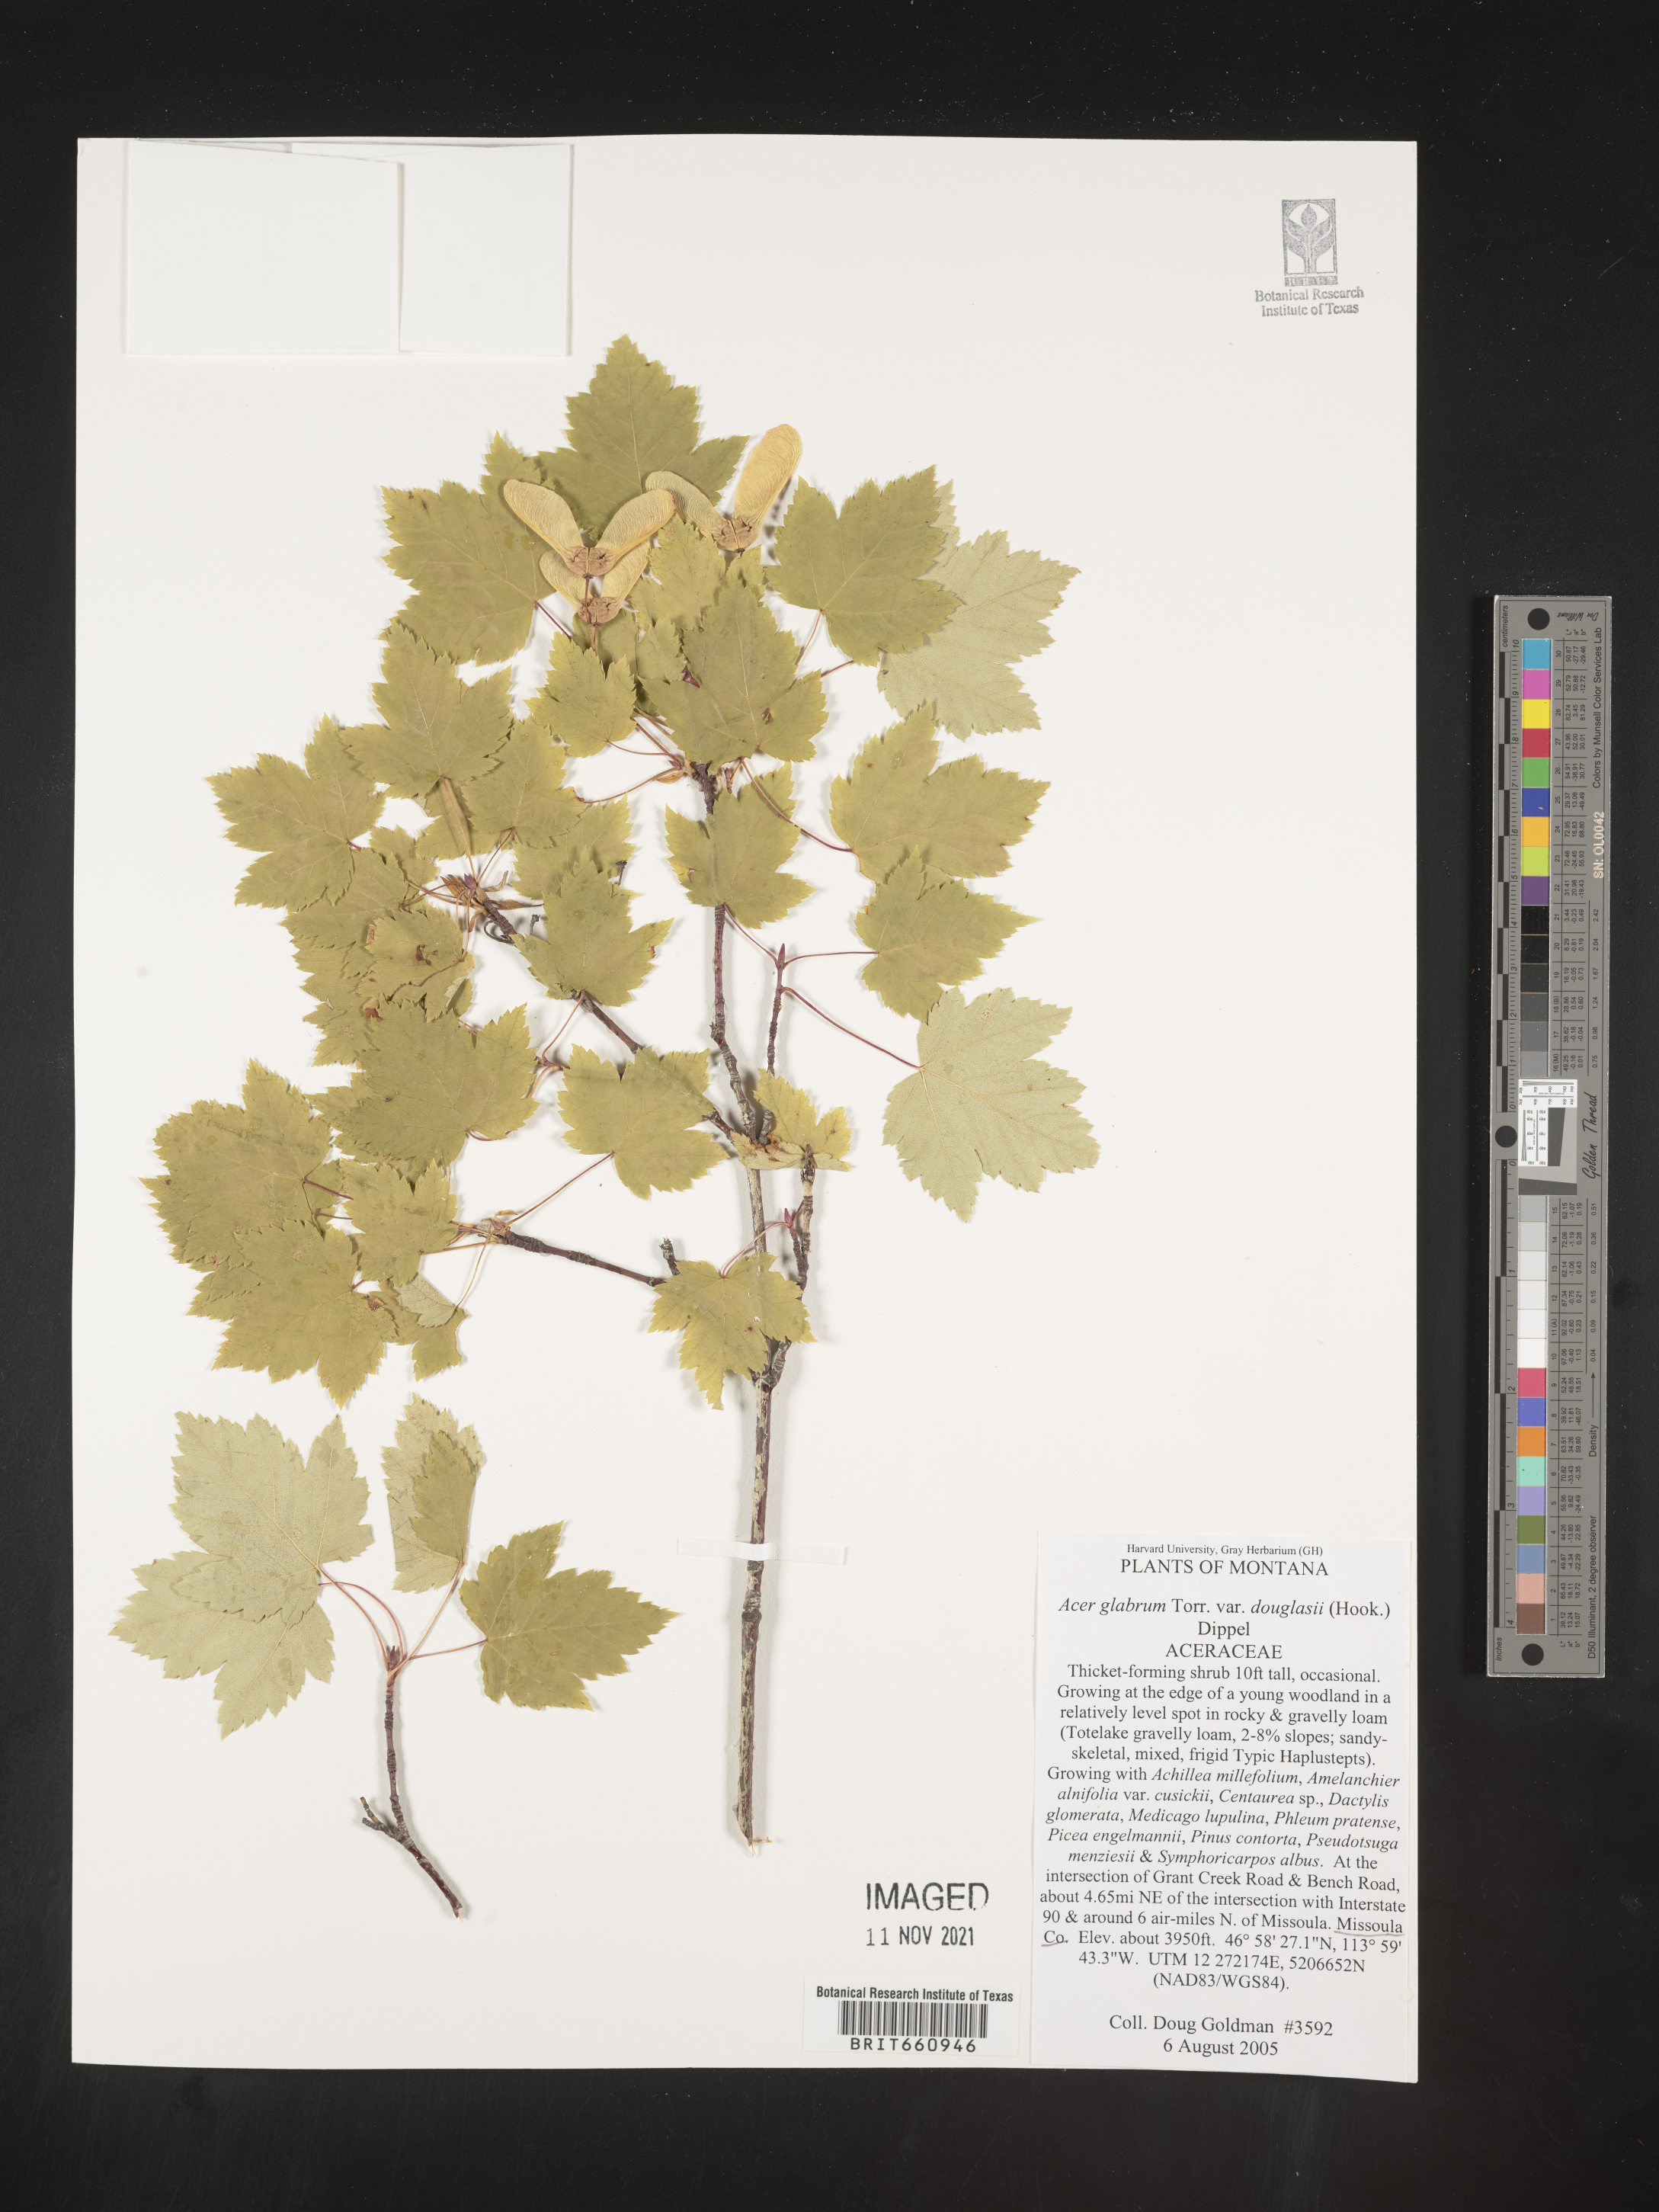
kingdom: Plantae
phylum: Tracheophyta
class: Magnoliopsida
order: Sapindales
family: Sapindaceae
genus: Acer
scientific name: Acer glabrum
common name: Rocky mountain maple
